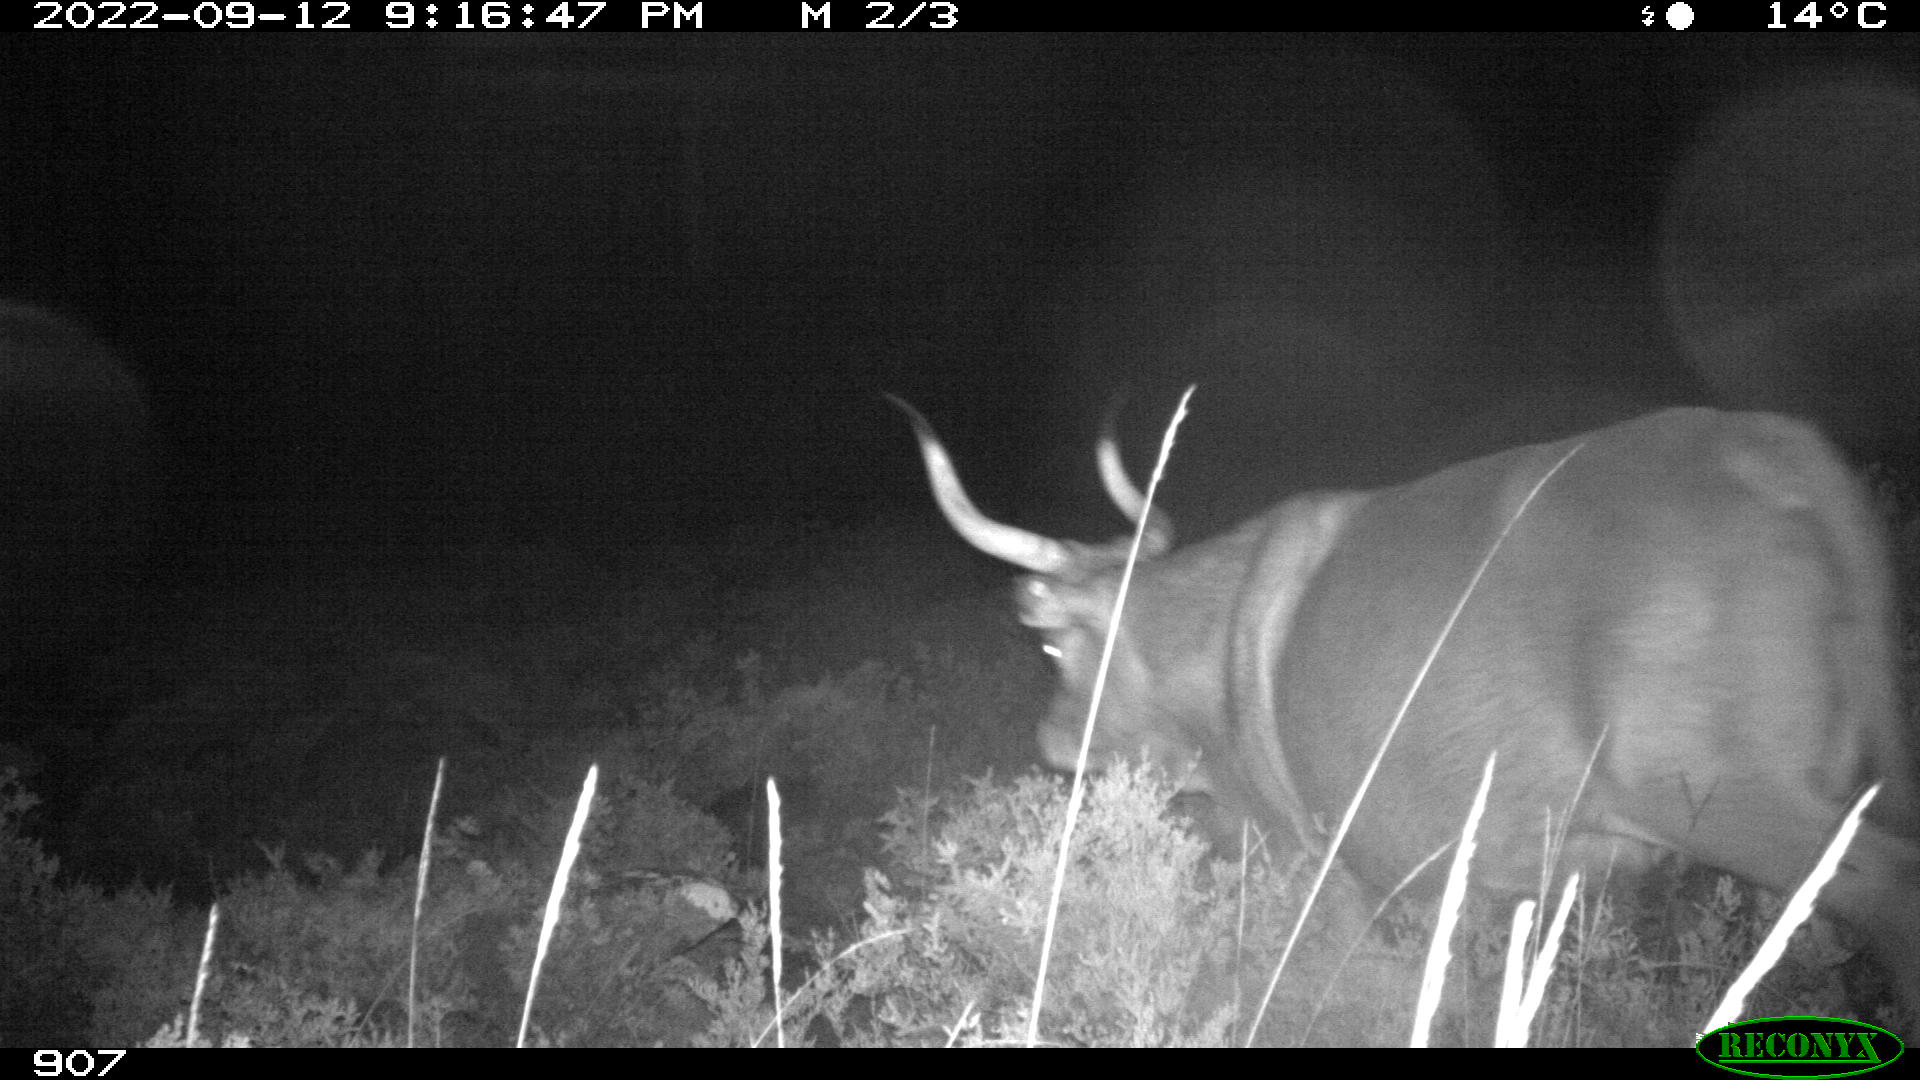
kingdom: Animalia
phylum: Chordata
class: Mammalia
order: Artiodactyla
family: Bovidae
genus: Bos
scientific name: Bos taurus
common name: Domesticated cattle
